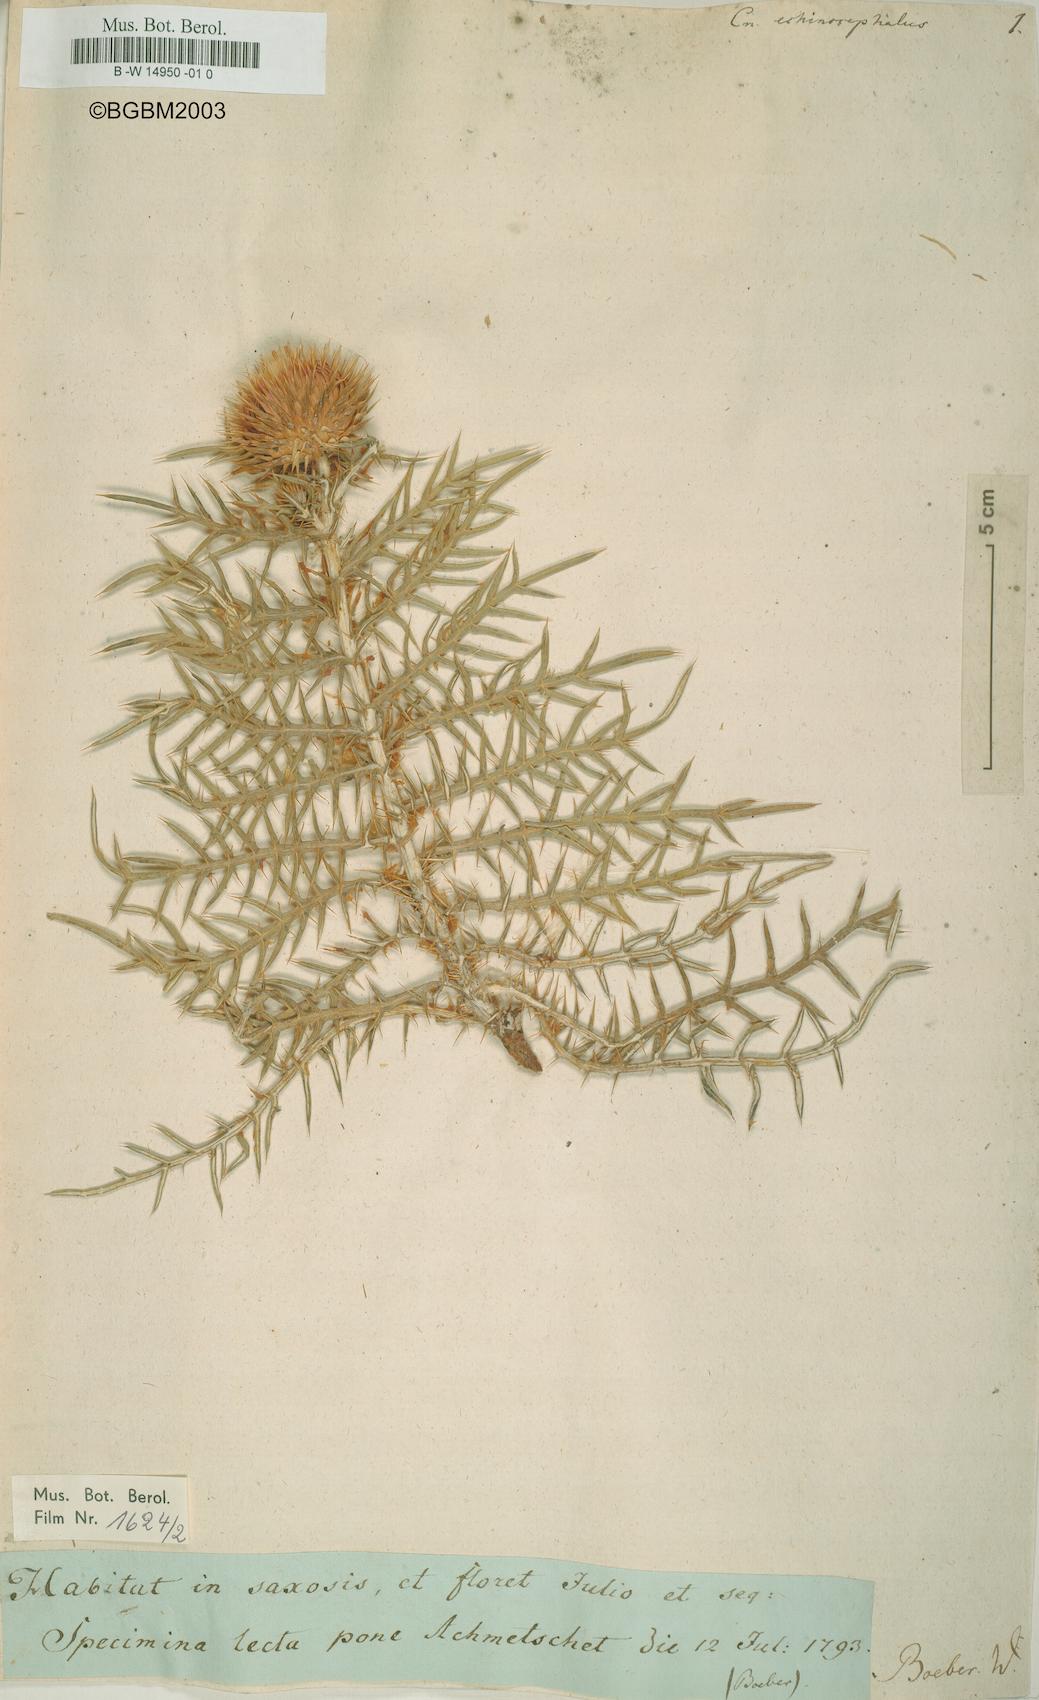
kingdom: Plantae
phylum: Tracheophyta
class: Magnoliopsida
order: Asterales
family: Asteraceae
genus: Ptilostemon
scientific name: Ptilostemon echinocephalus
